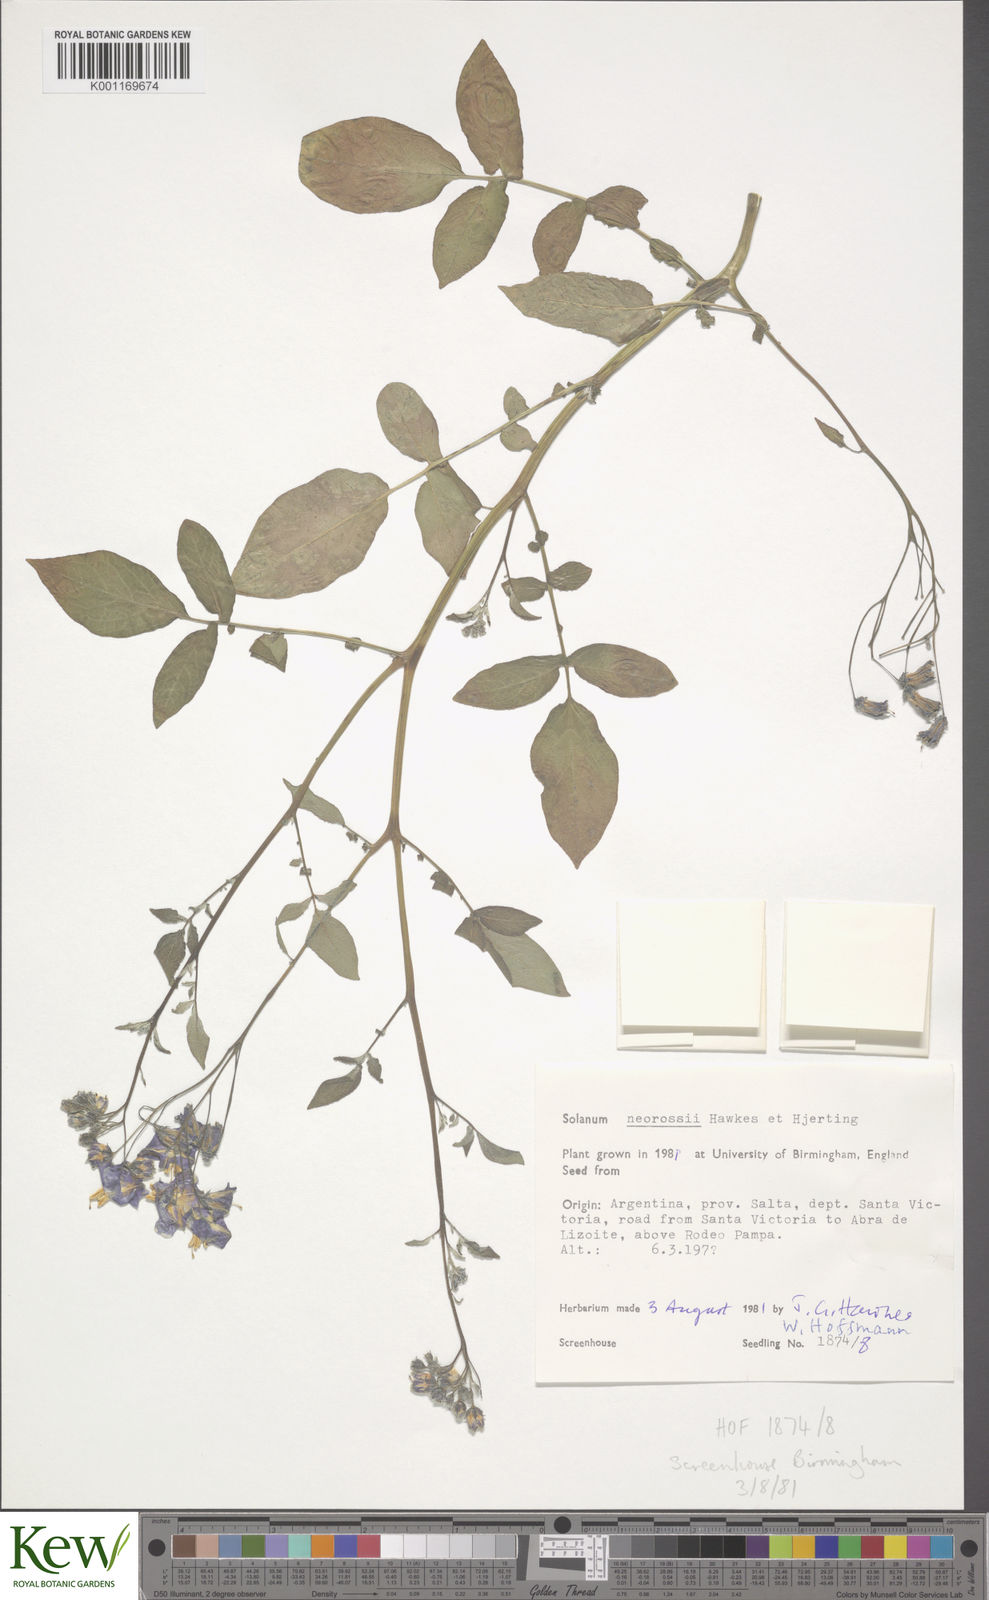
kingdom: Plantae
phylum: Tracheophyta
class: Magnoliopsida
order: Solanales
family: Solanaceae
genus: Solanum
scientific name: Solanum neorossii
